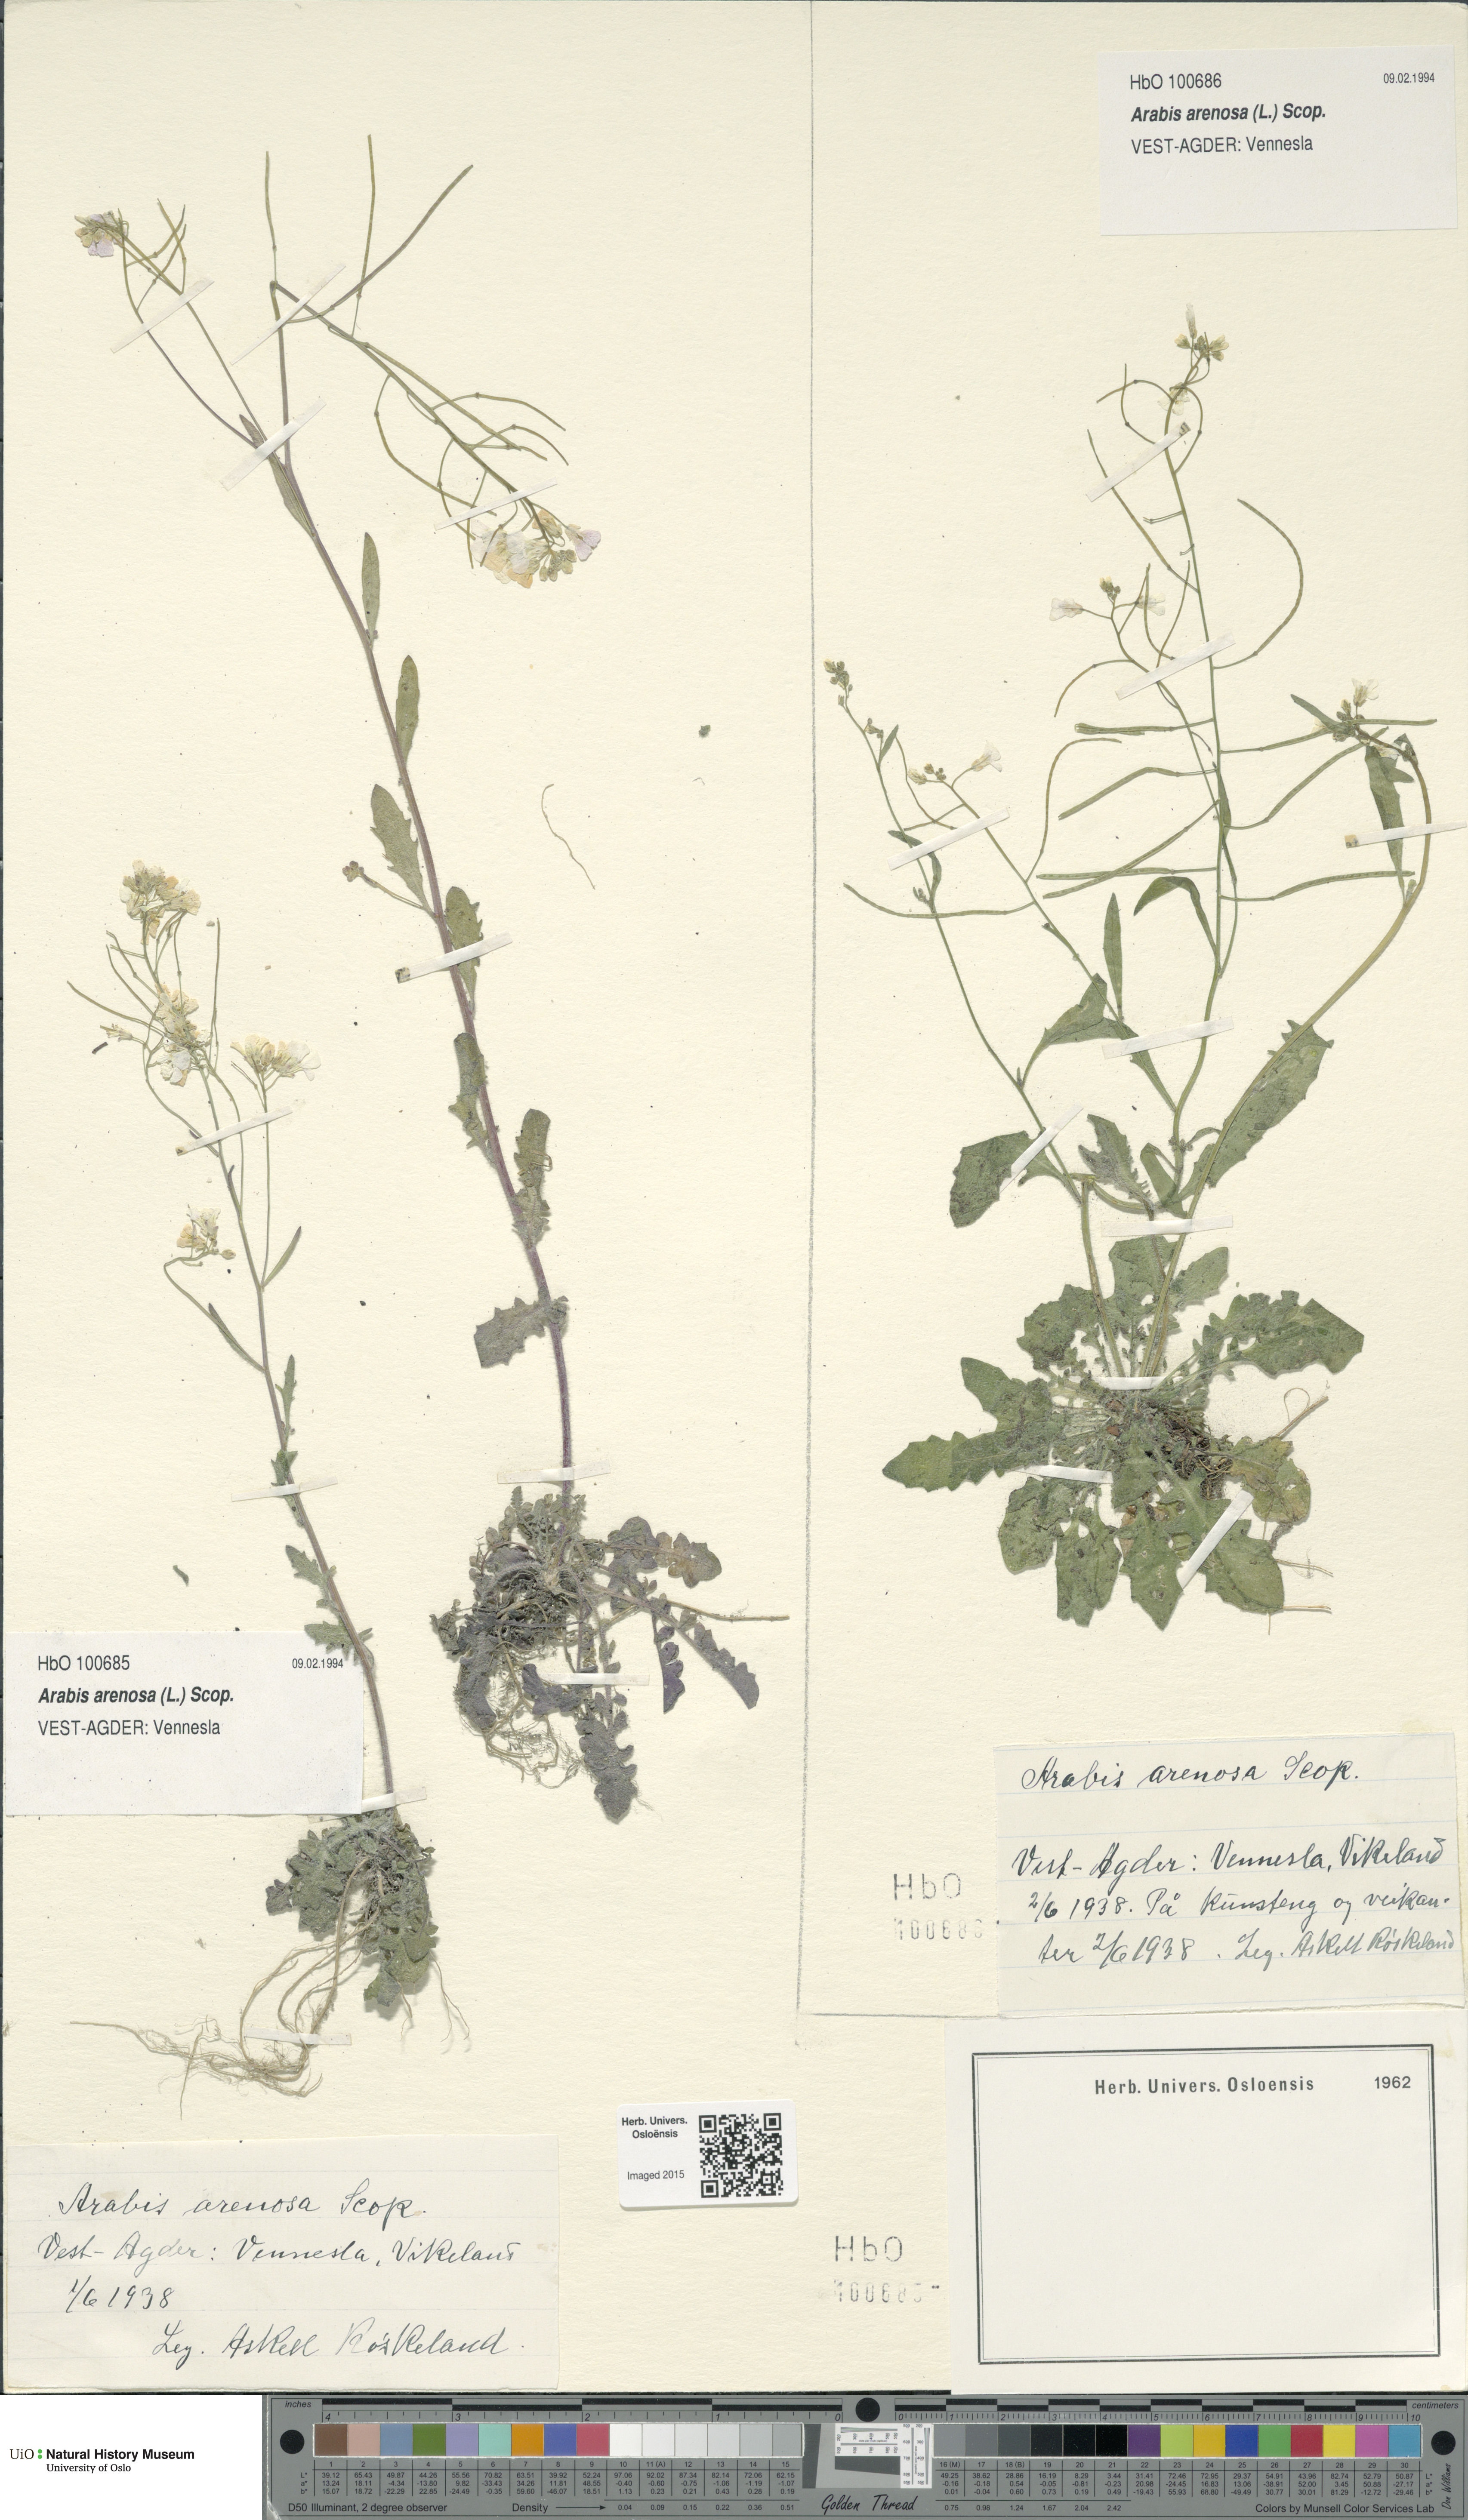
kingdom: Plantae
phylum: Tracheophyta
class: Magnoliopsida
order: Brassicales
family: Brassicaceae
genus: Arabidopsis
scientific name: Arabidopsis arenosa
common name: Sand rock-cress
